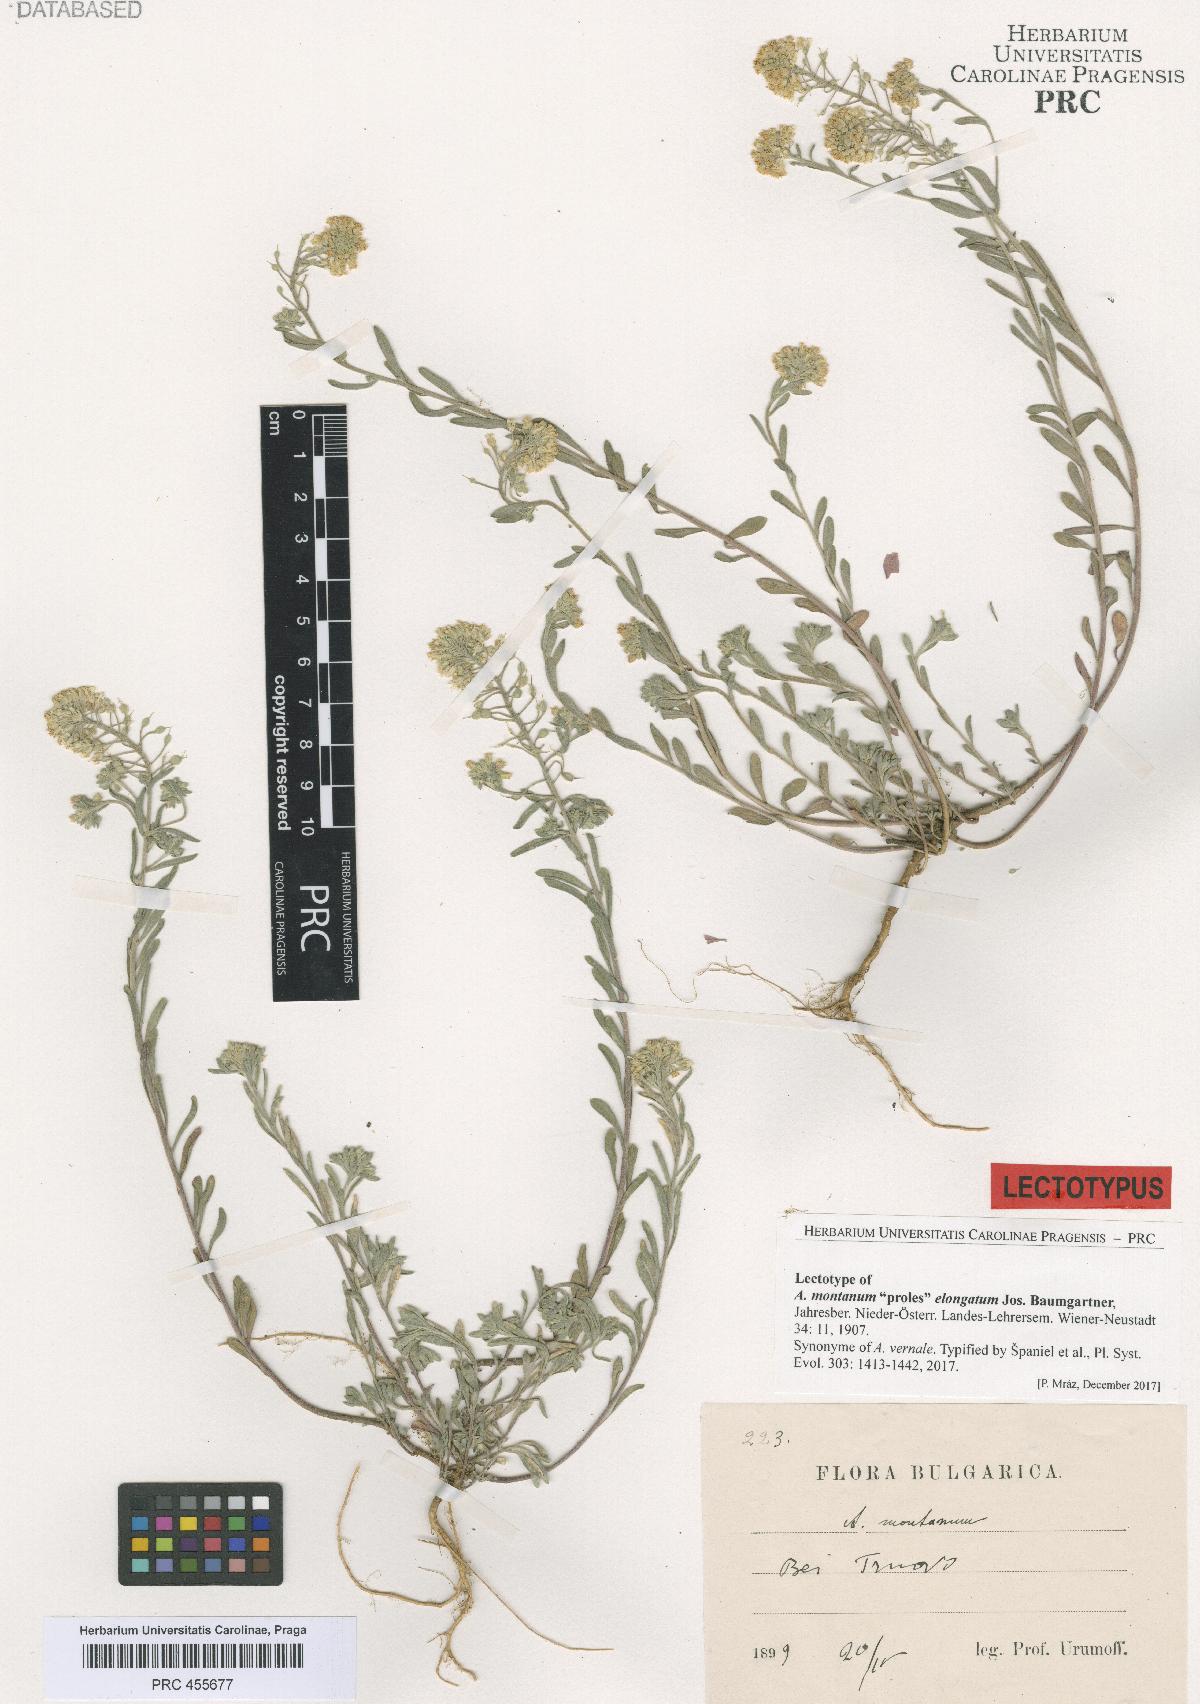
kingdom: Plantae
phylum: Tracheophyta
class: Magnoliopsida
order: Brassicales
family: Brassicaceae
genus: Alyssum
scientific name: Alyssum montanum
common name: Mountain alison
